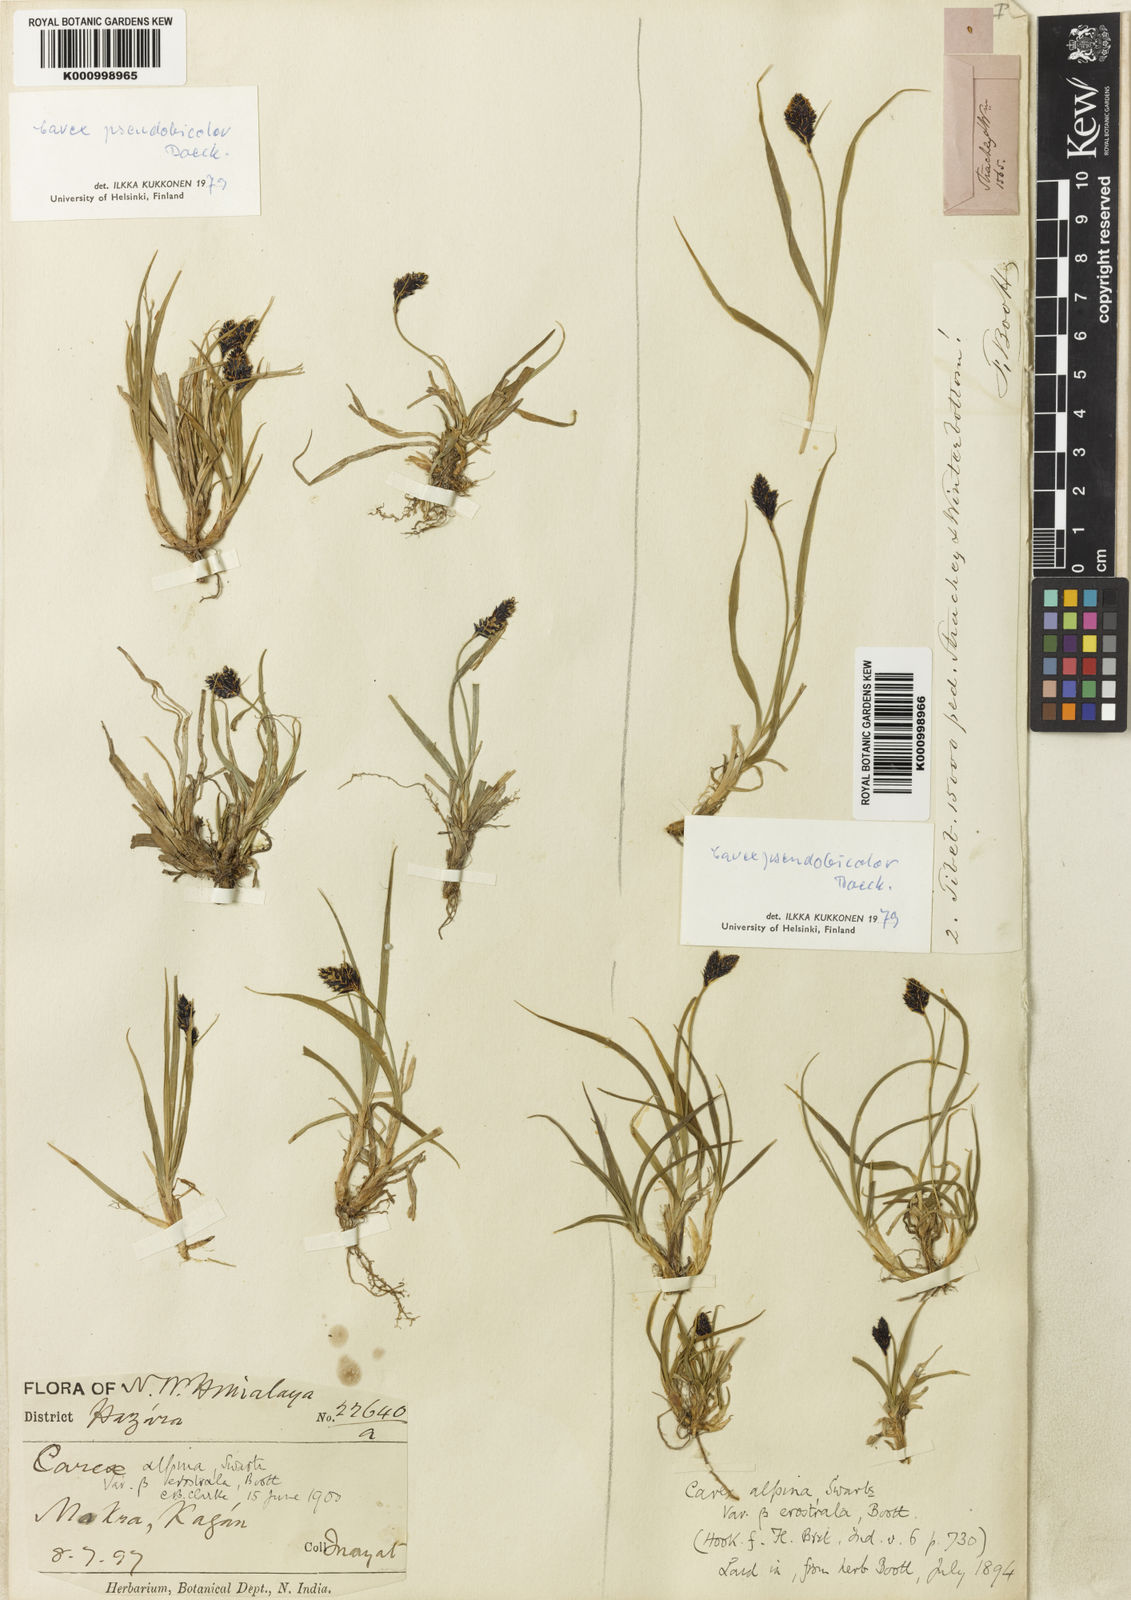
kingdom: Plantae
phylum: Tracheophyta
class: Liliopsida
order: Poales
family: Cyperaceae
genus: Carex
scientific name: Carex norvegica
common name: Close-headed alpine-sedge
